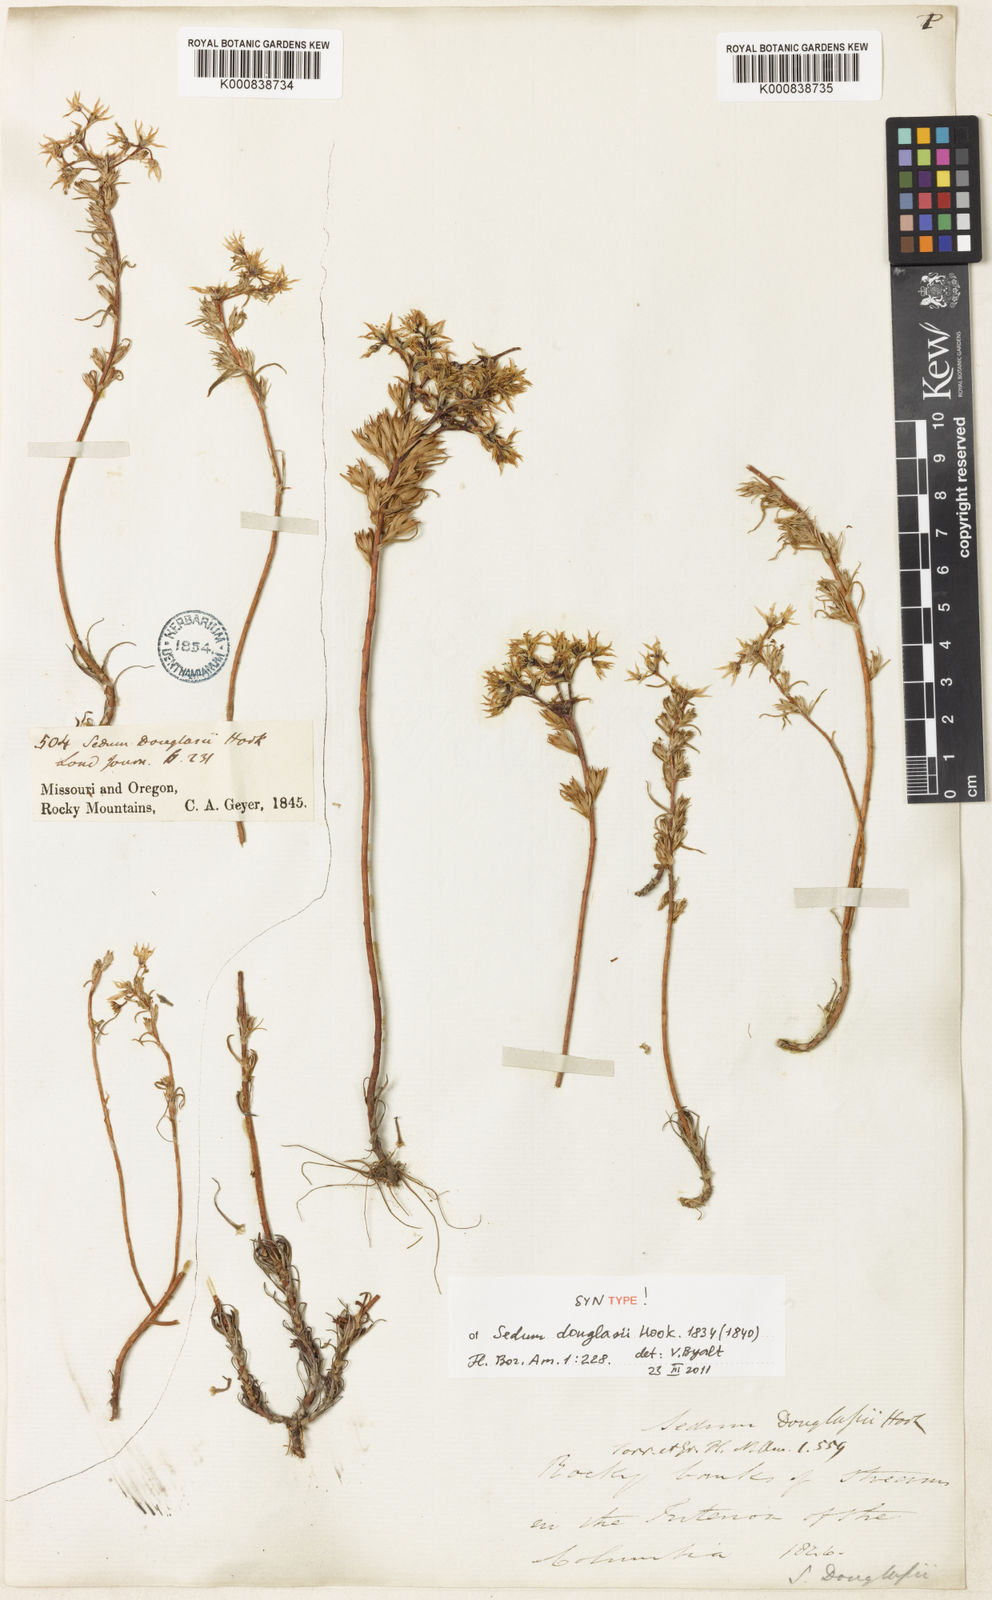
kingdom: Plantae
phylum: Tracheophyta
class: Magnoliopsida
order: Saxifragales
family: Crassulaceae
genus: Sedum
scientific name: Sedum stenopetalum
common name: Narrow-petaled stonecrop
